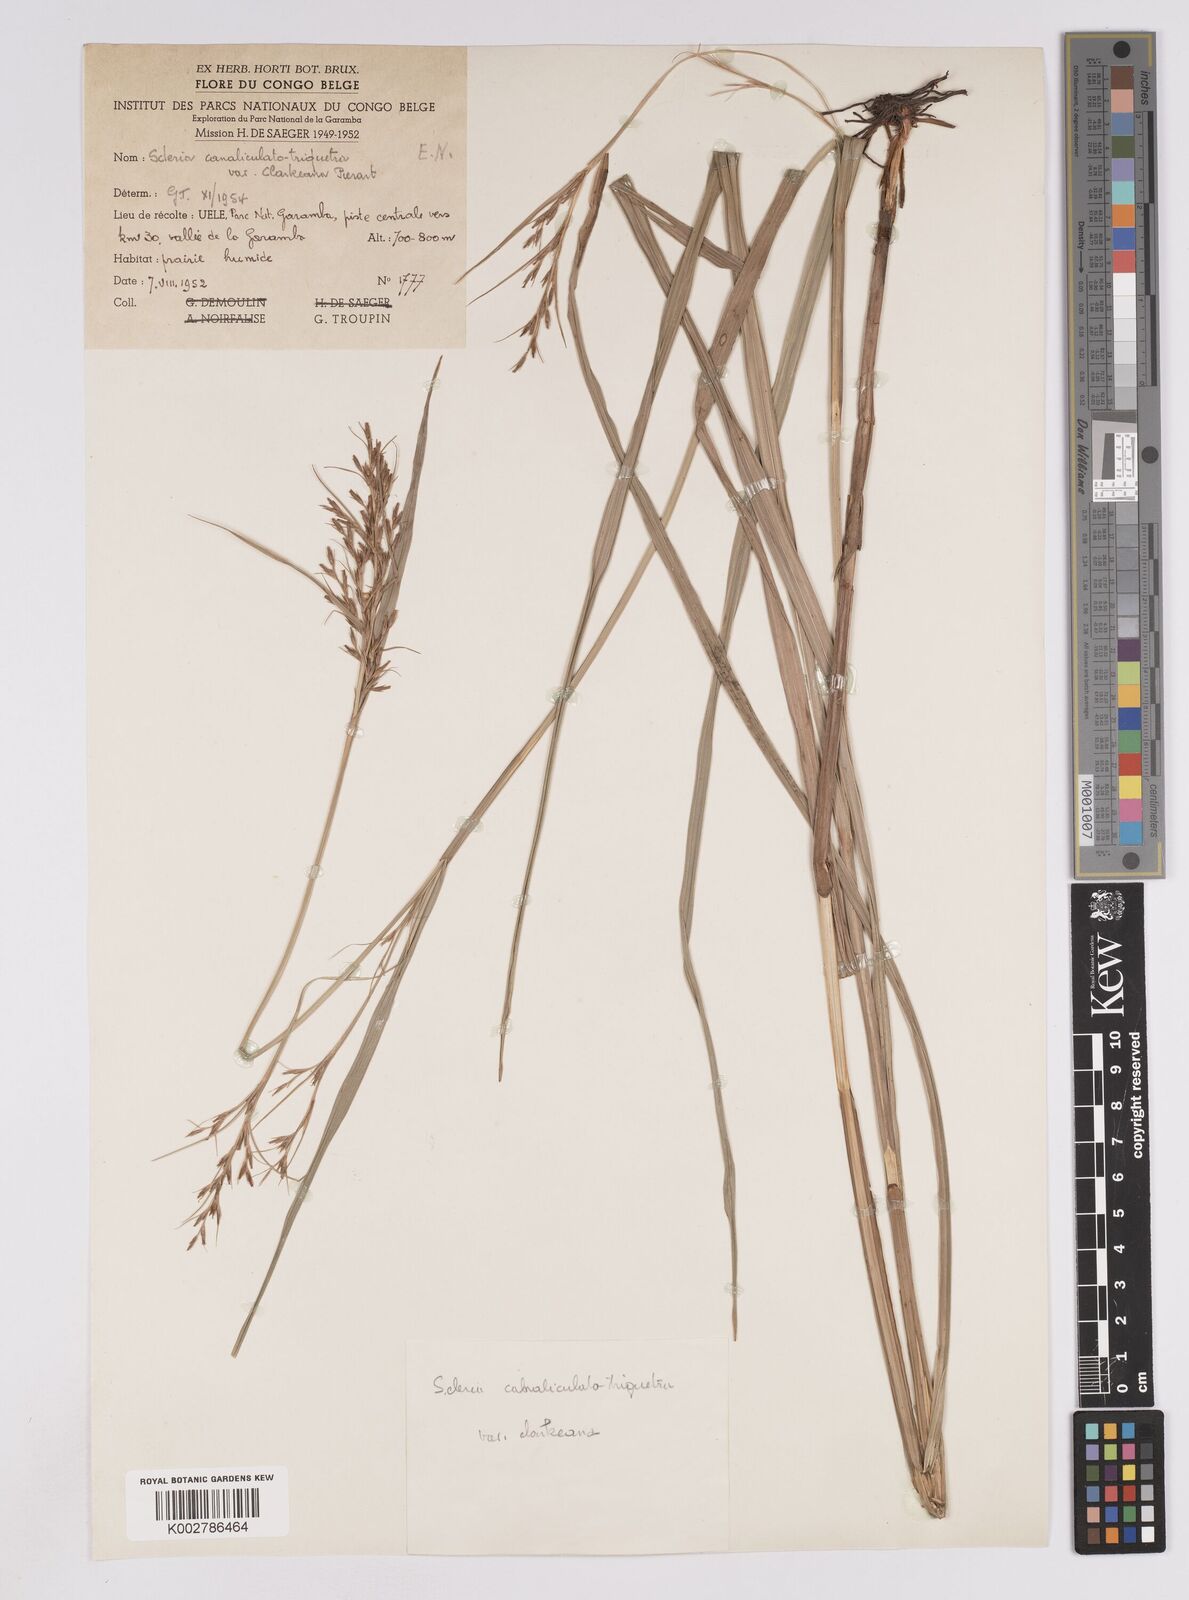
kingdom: Plantae
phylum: Tracheophyta
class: Liliopsida
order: Poales
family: Cyperaceae
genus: Scleria
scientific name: Scleria lagoensis
